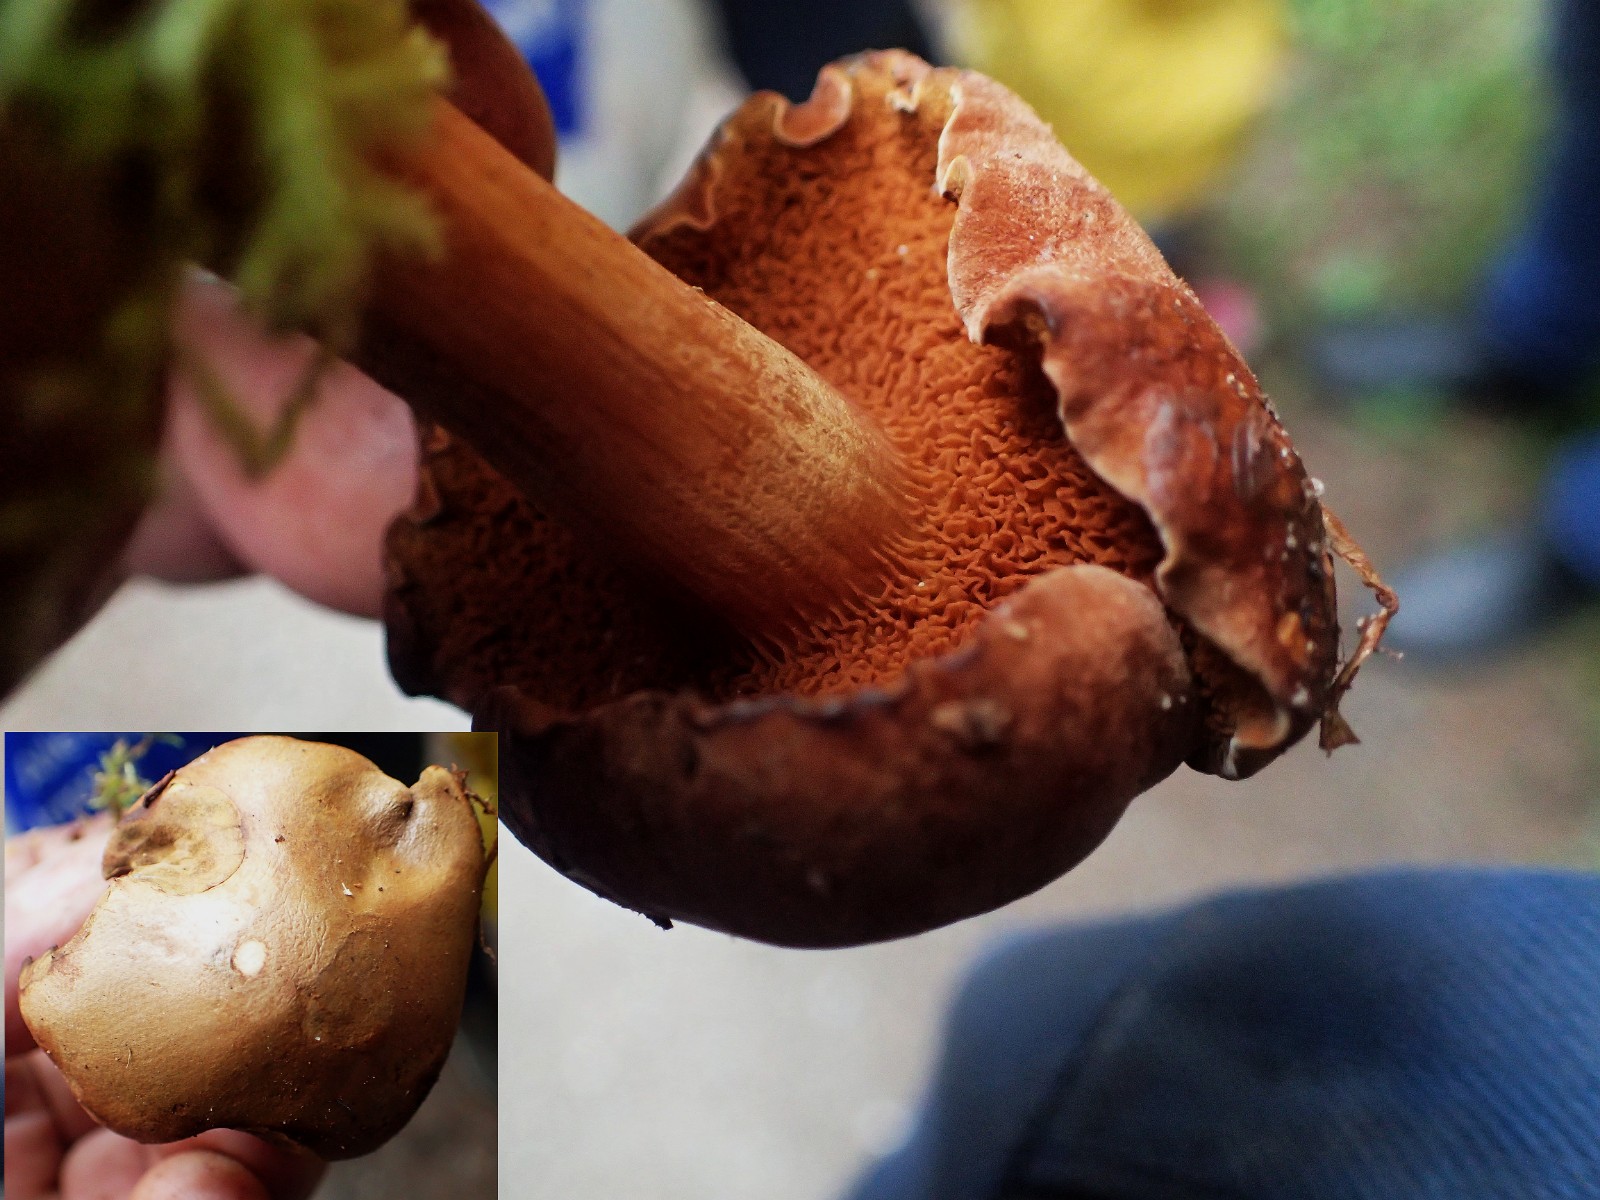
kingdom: Fungi
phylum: Basidiomycota
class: Agaricomycetes
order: Boletales
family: Boletaceae
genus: Chalciporus
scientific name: Chalciporus piperatus
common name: peberrørhat
